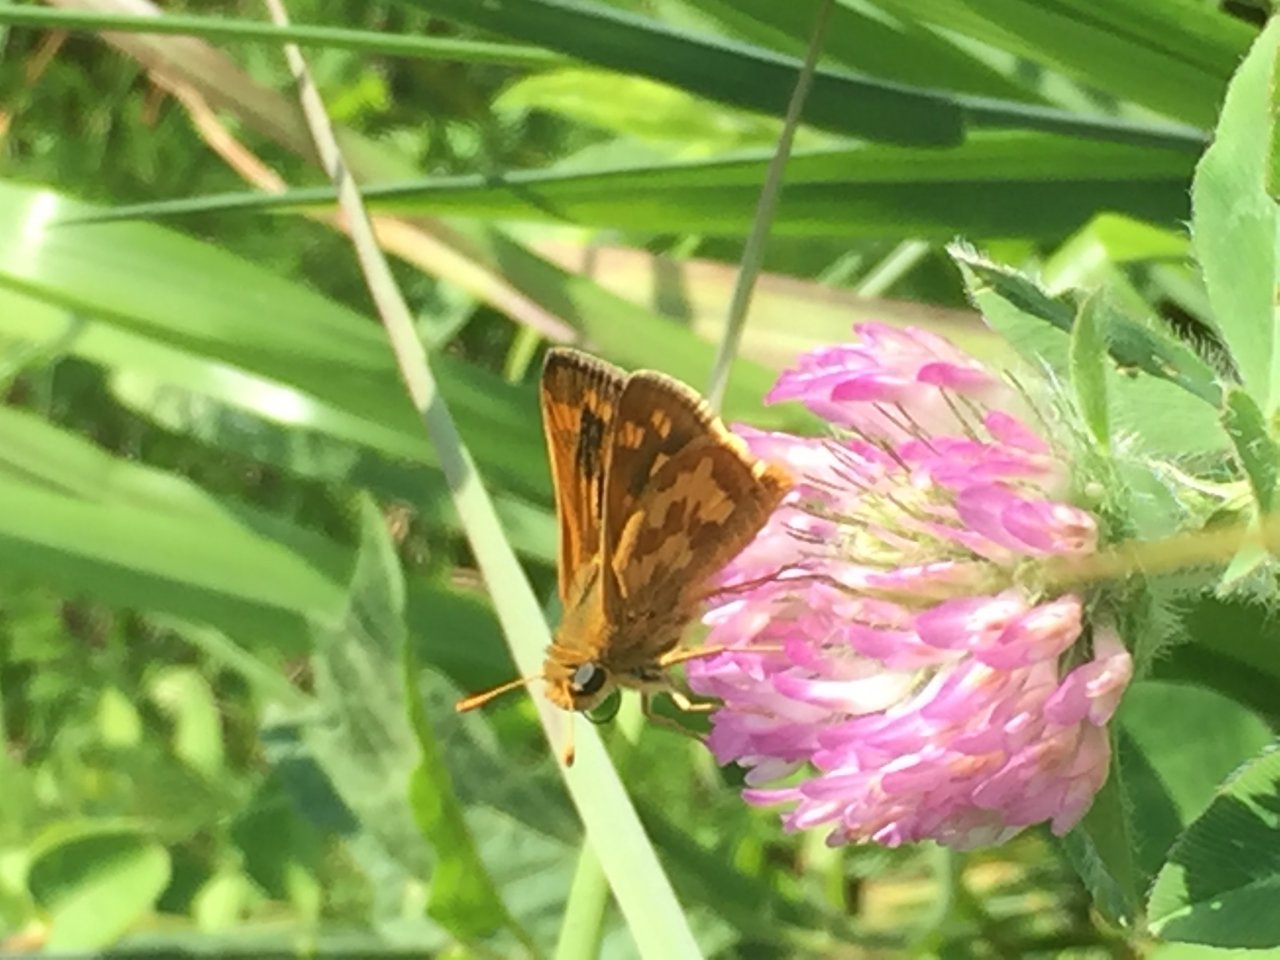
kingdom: Animalia
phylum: Arthropoda
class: Insecta
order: Lepidoptera
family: Hesperiidae
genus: Polites
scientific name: Polites coras
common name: Peck's Skipper
